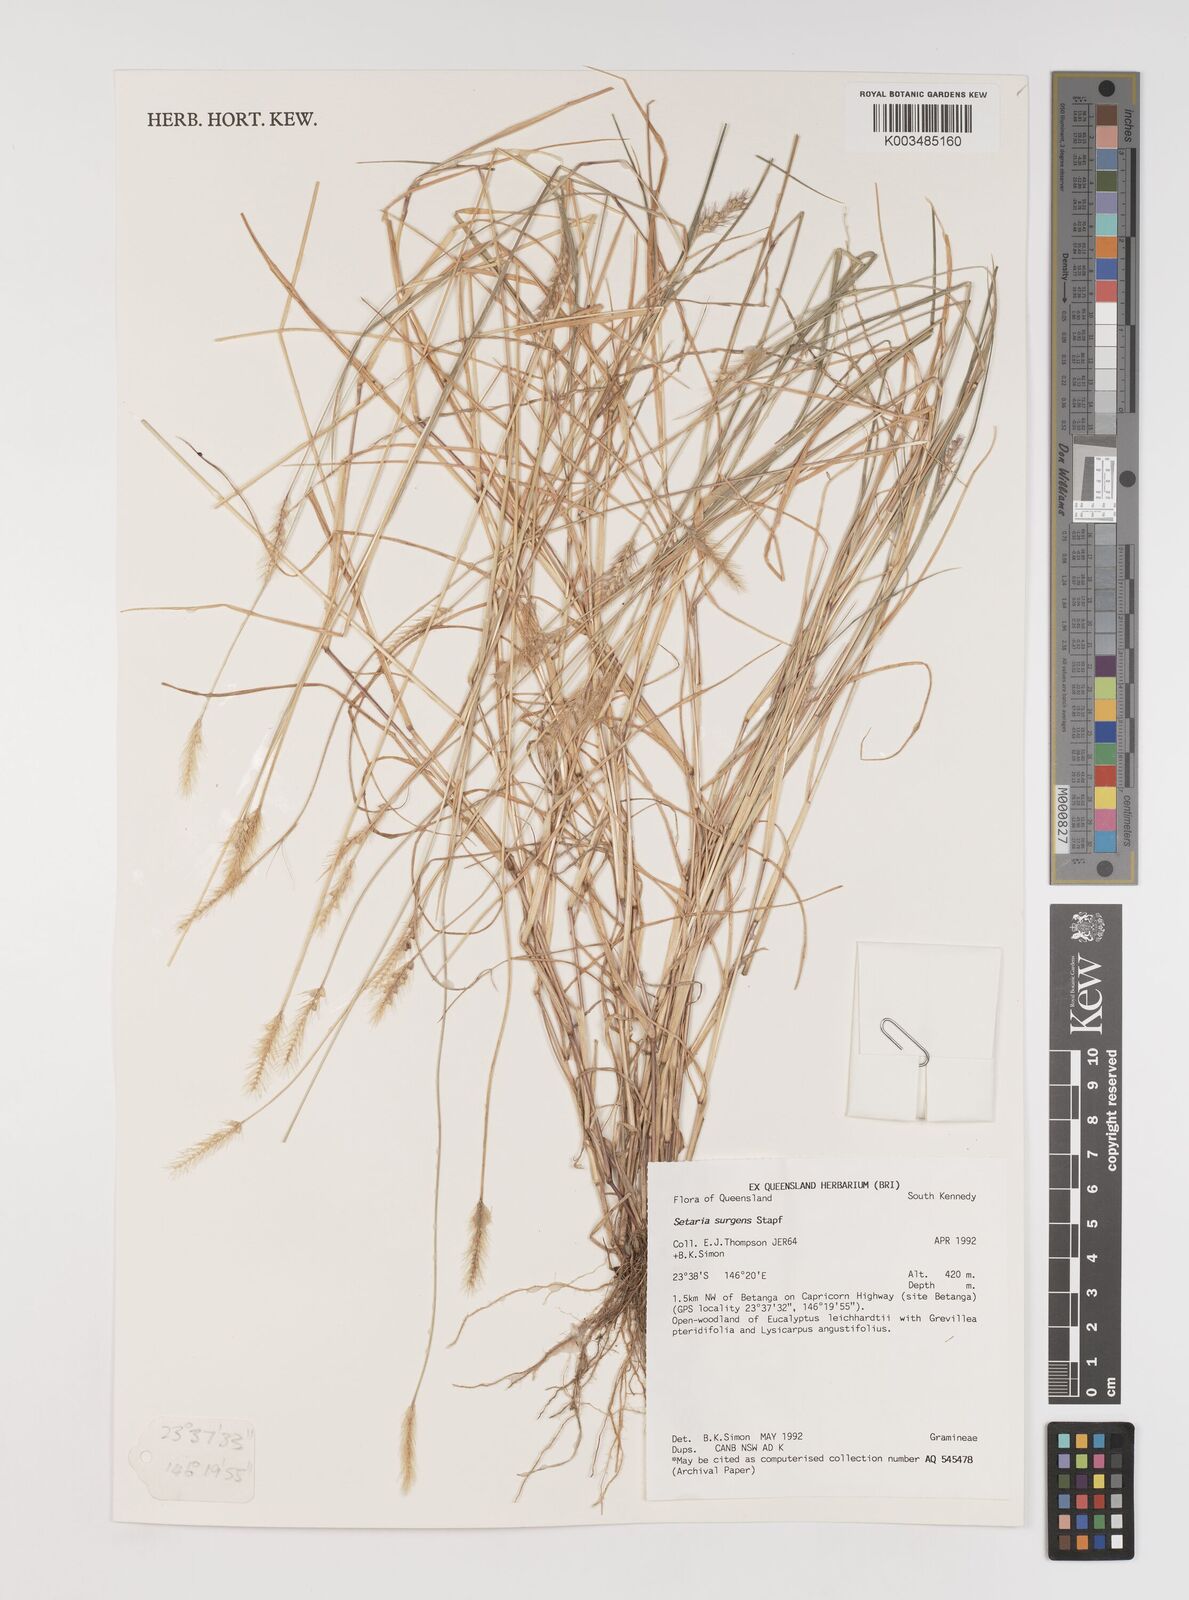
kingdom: Plantae
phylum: Tracheophyta
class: Liliopsida
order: Poales
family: Poaceae
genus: Setaria
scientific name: Setaria apiculata
